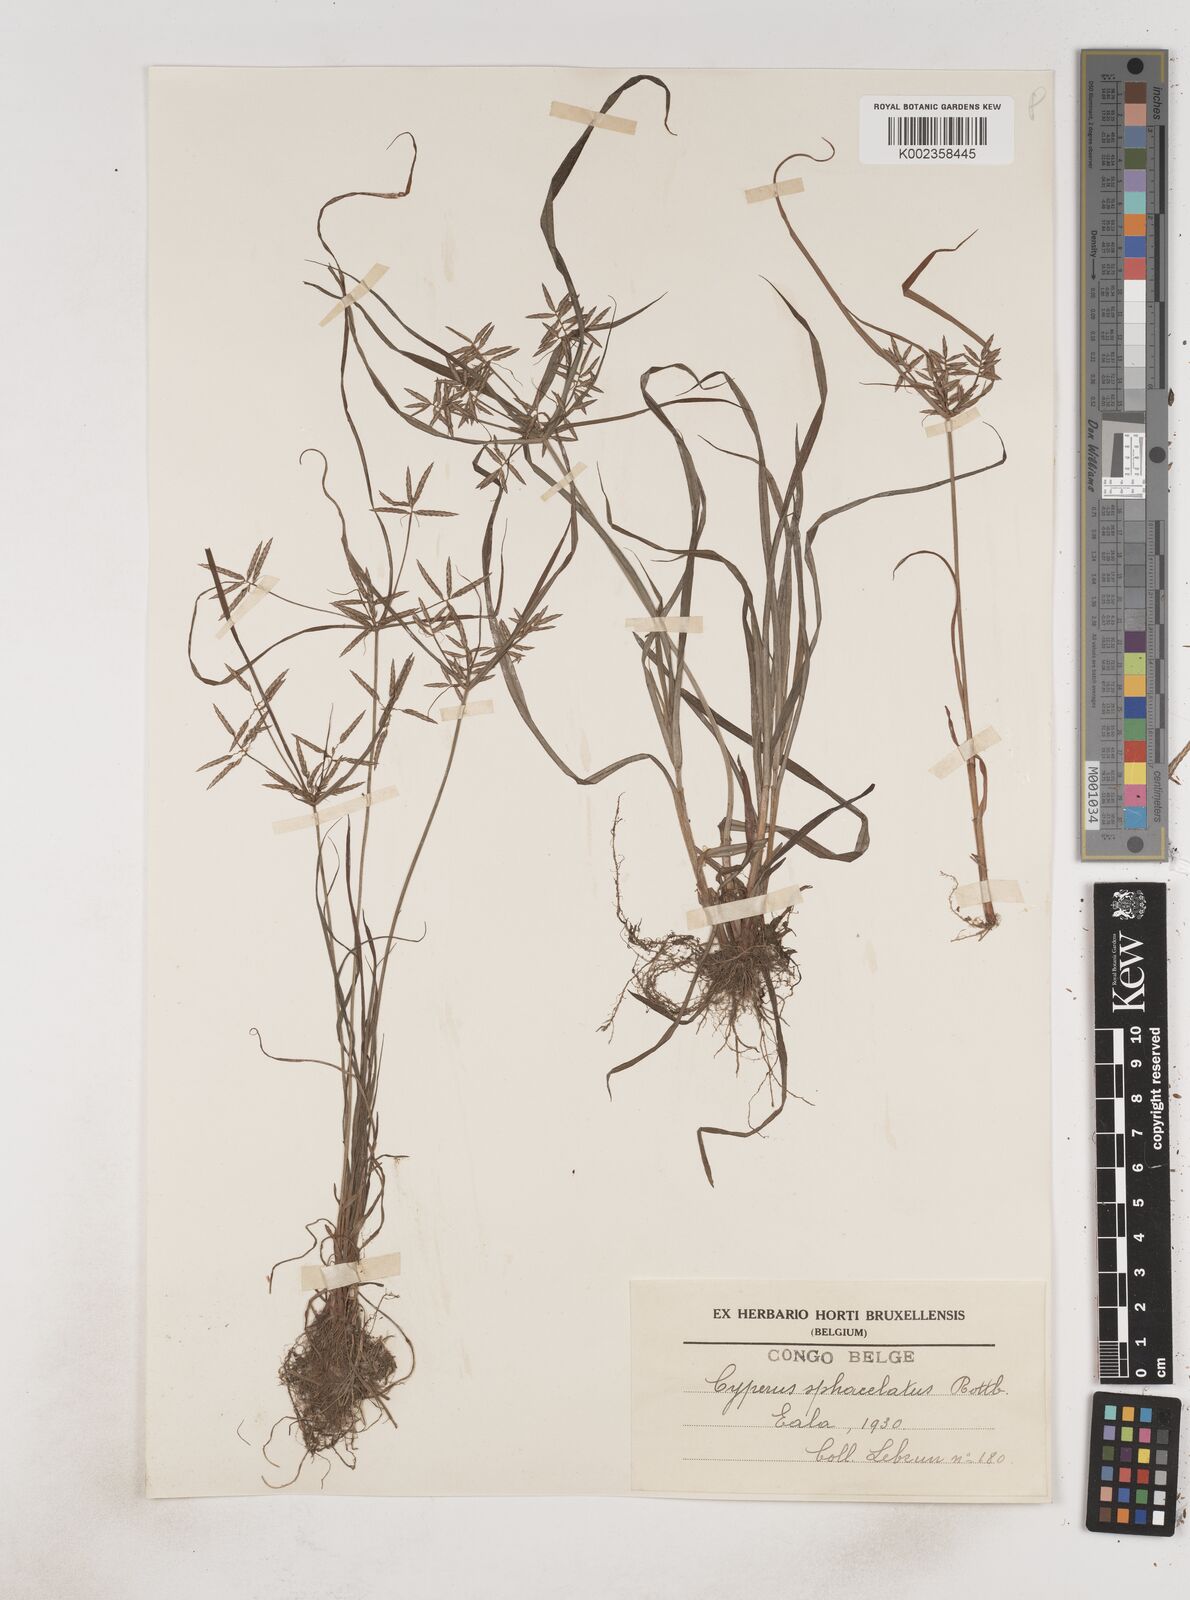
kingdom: Plantae
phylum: Tracheophyta
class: Liliopsida
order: Poales
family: Cyperaceae
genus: Cyperus
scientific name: Cyperus sphacelatus
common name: Roadside flatsedge
